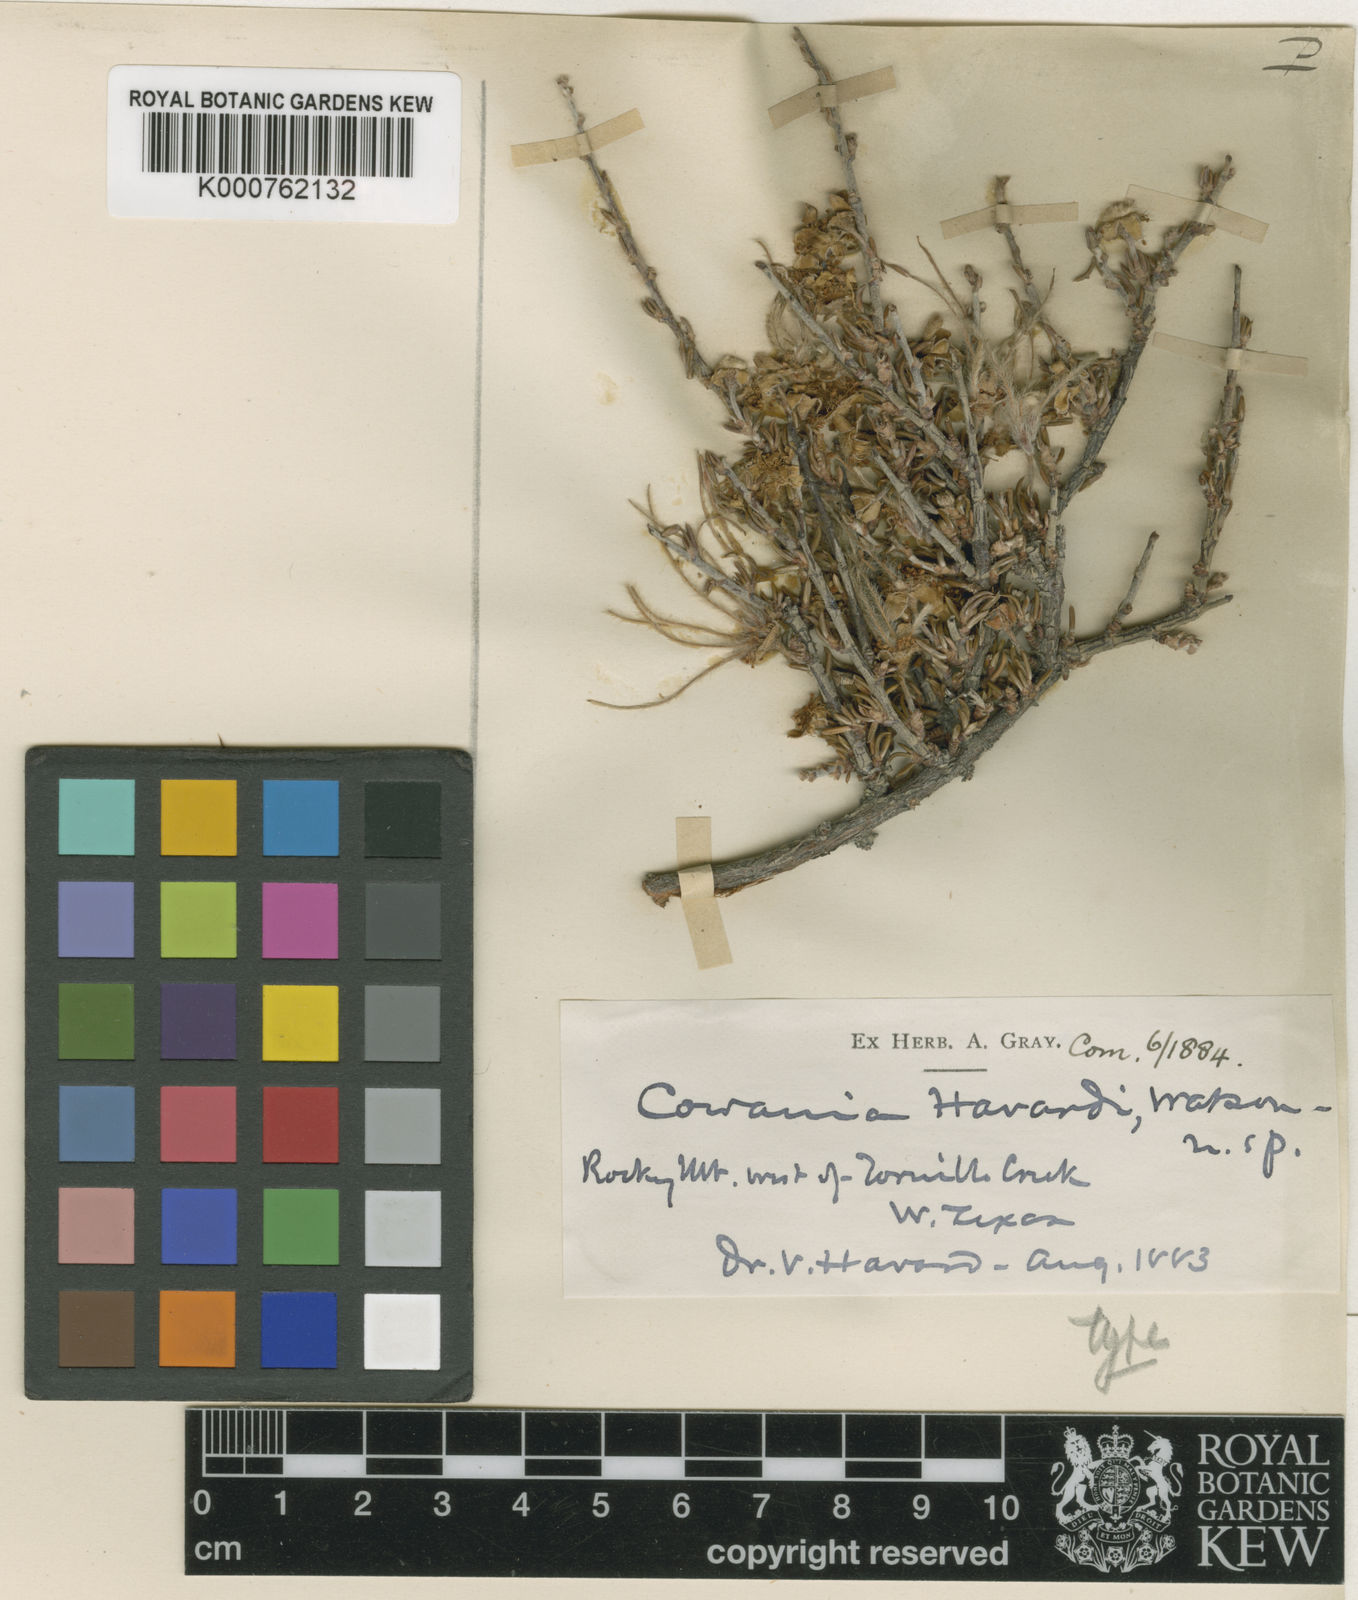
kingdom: Plantae
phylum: Tracheophyta
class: Magnoliopsida
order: Rosales
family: Rosaceae
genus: Purshia
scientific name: Purshia ericifolia
